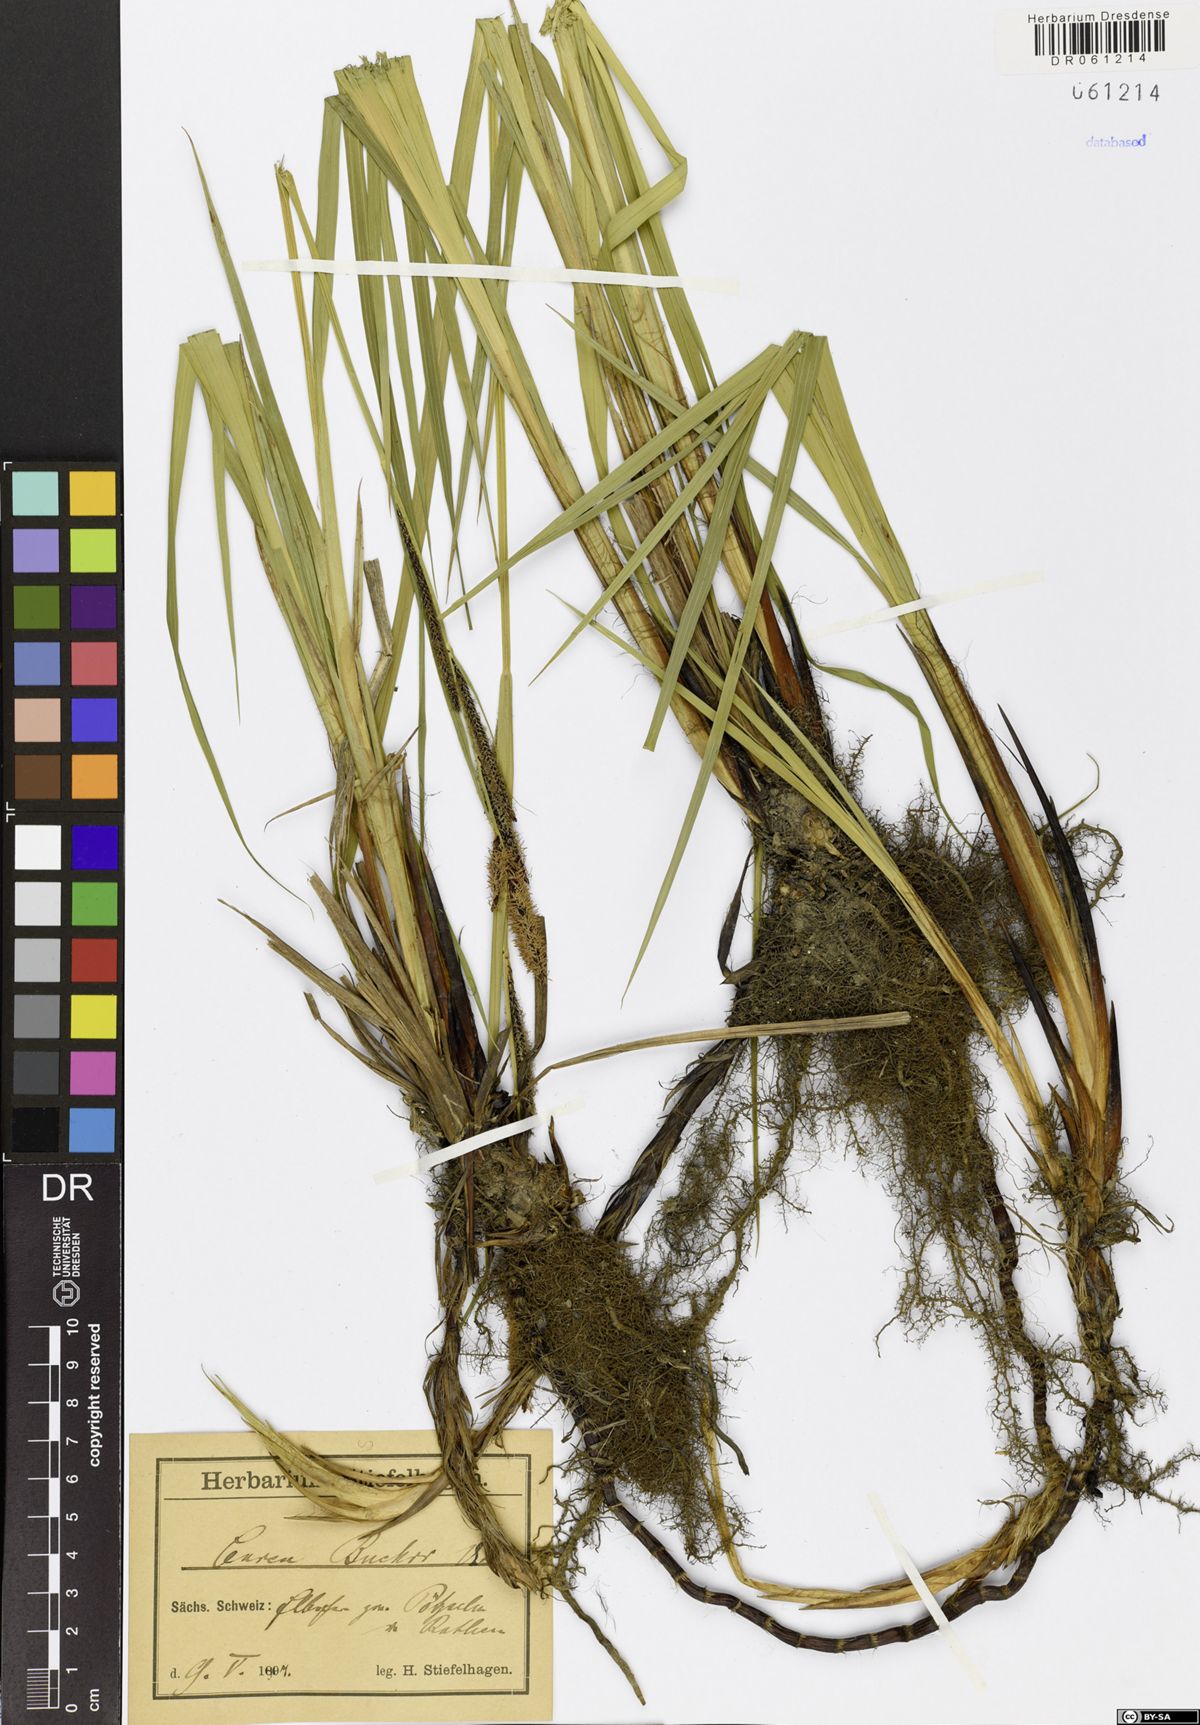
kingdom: Plantae
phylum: Tracheophyta
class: Liliopsida
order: Poales
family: Cyperaceae
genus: Carex
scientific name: Carex buekii
